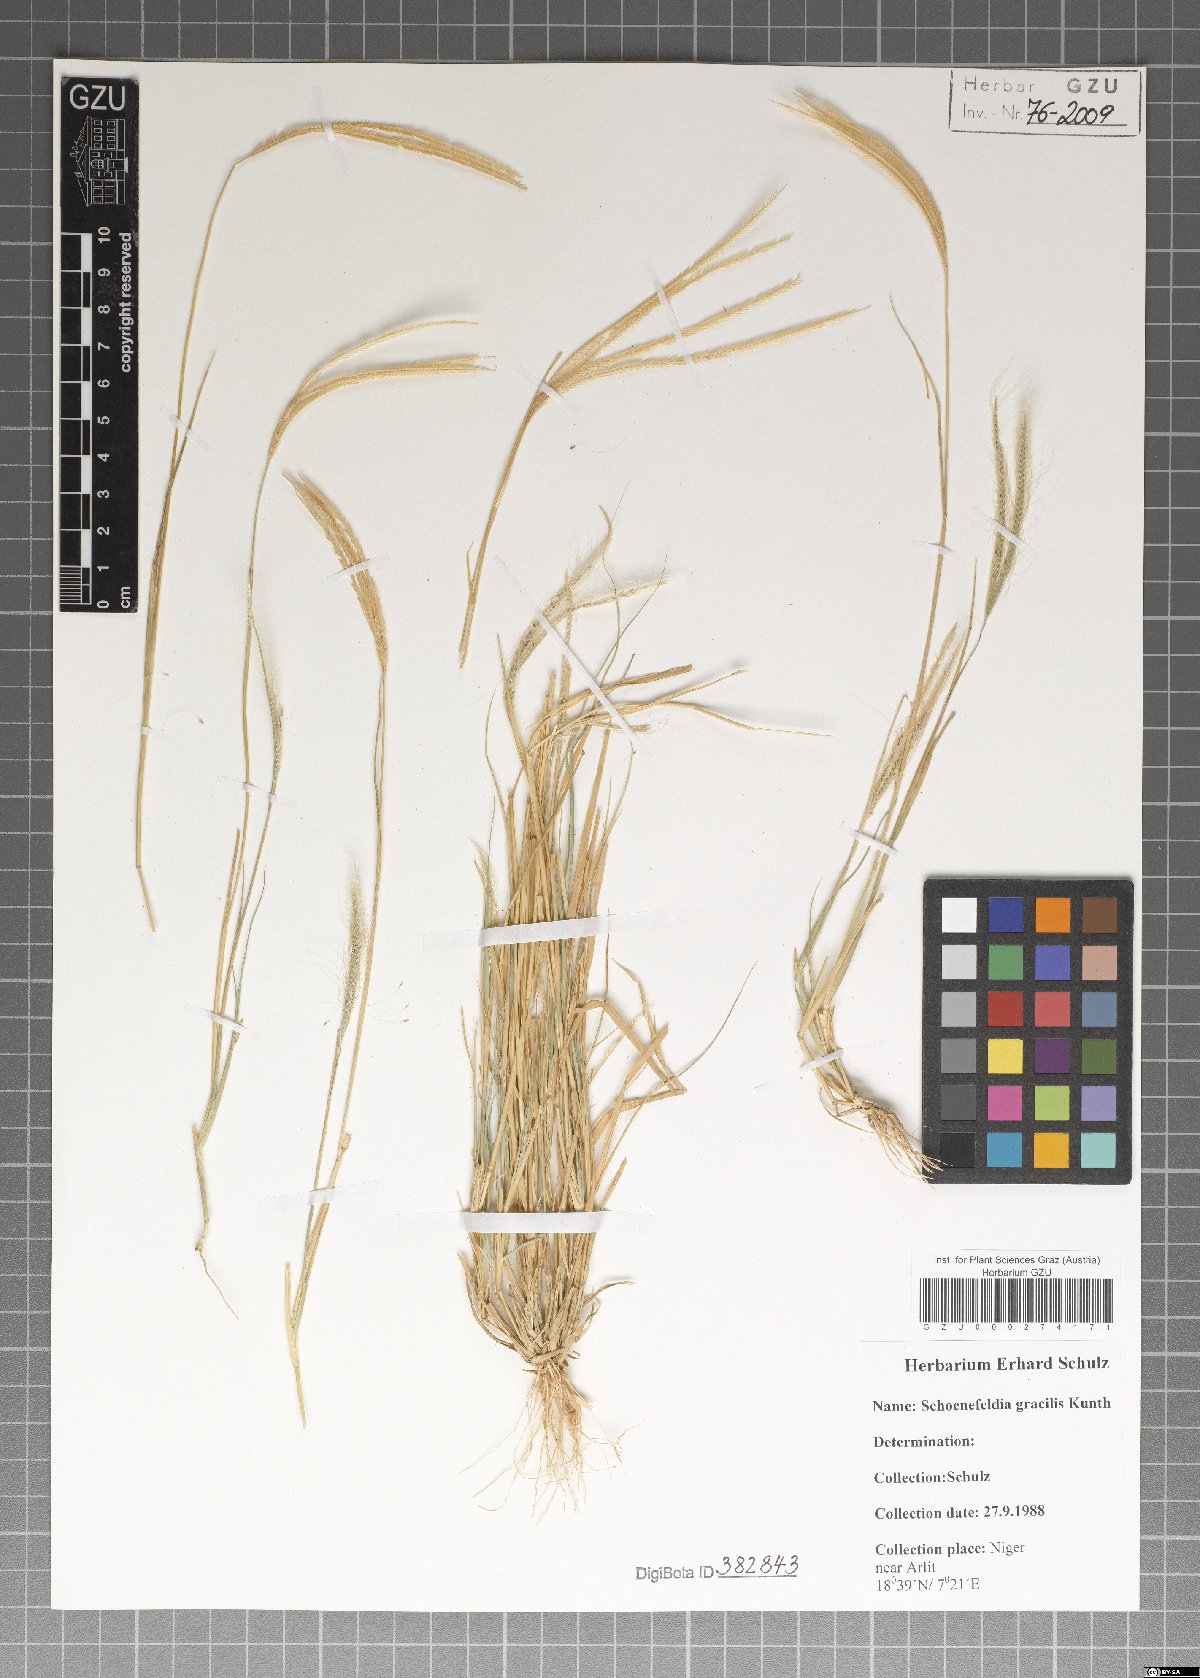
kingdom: Plantae
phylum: Tracheophyta
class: Liliopsida
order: Poales
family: Poaceae
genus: Schoenefeldia
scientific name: Schoenefeldia gracilis
